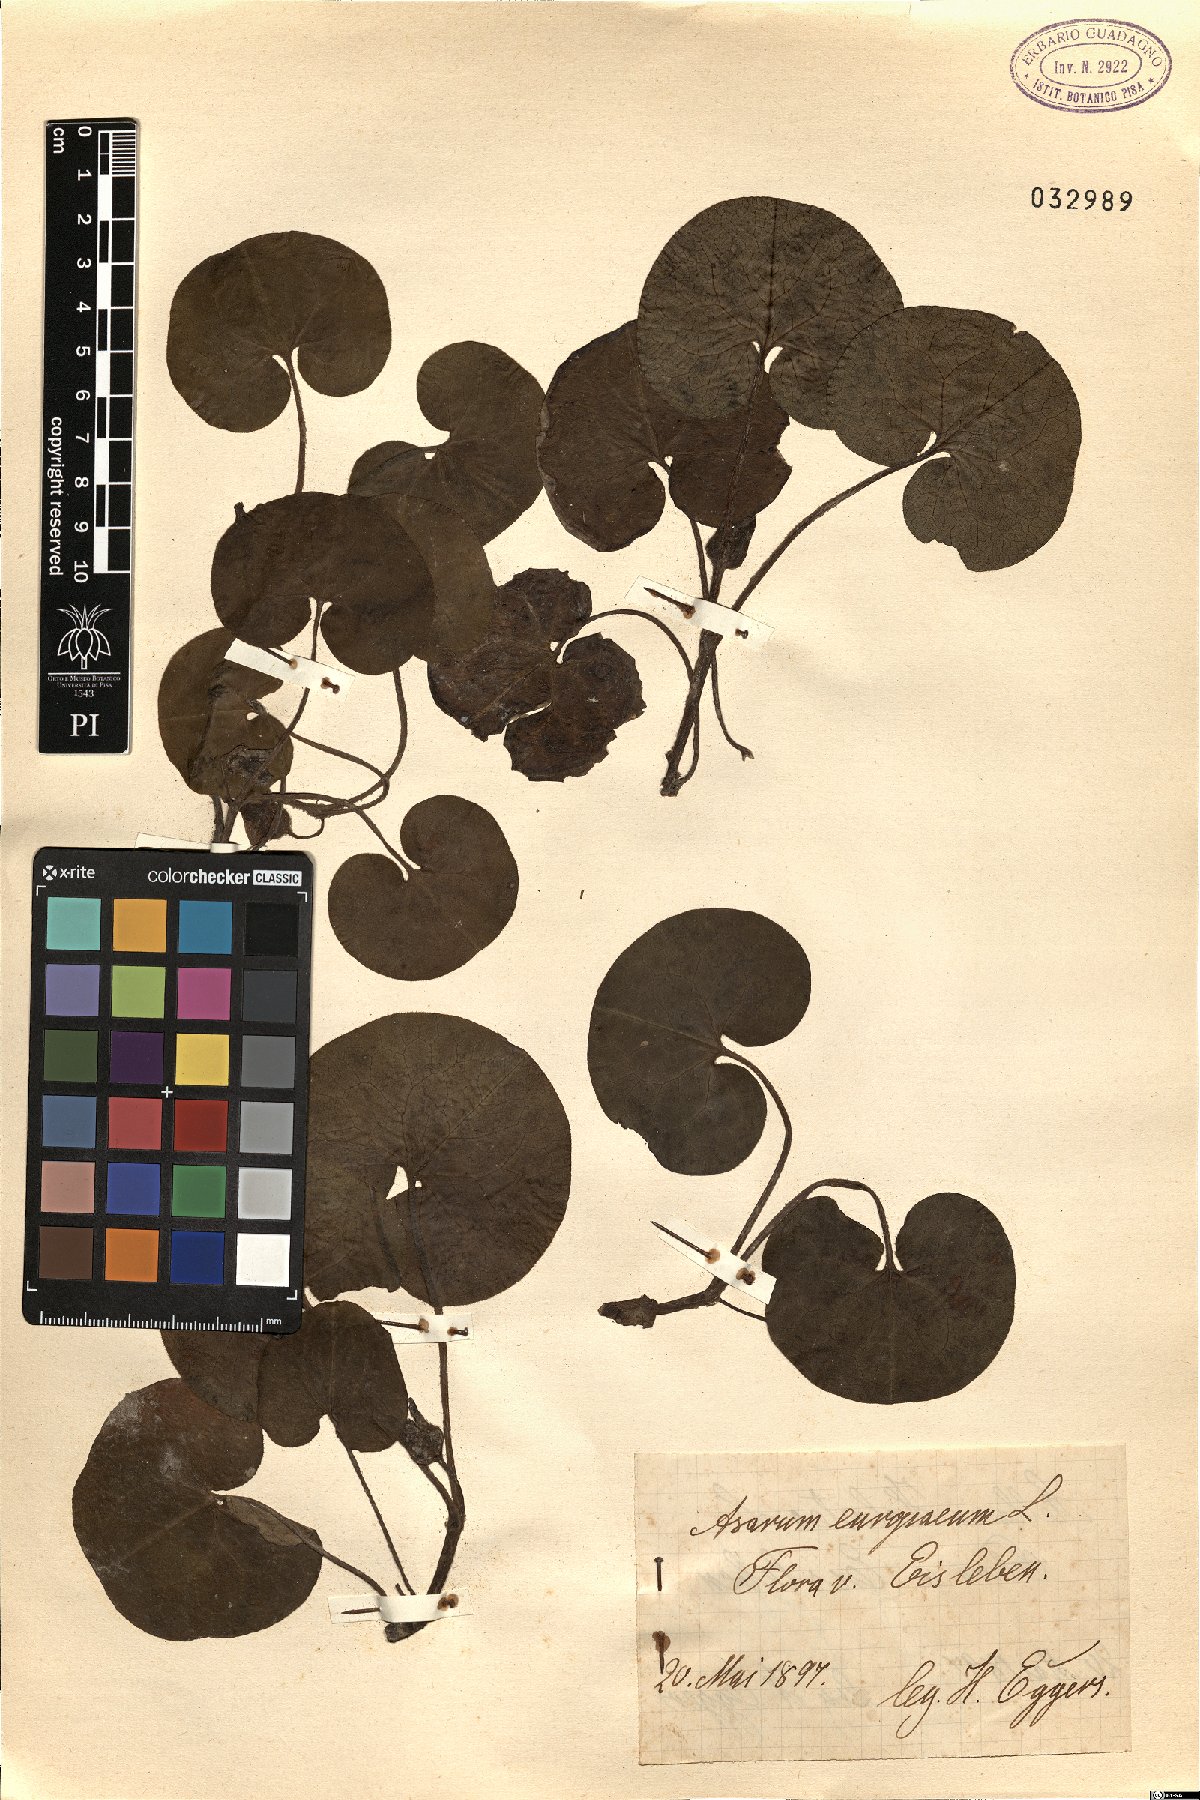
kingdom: Plantae
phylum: Tracheophyta
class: Magnoliopsida
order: Piperales
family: Aristolochiaceae
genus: Asarum
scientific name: Asarum europaeum
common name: Asarabacca
